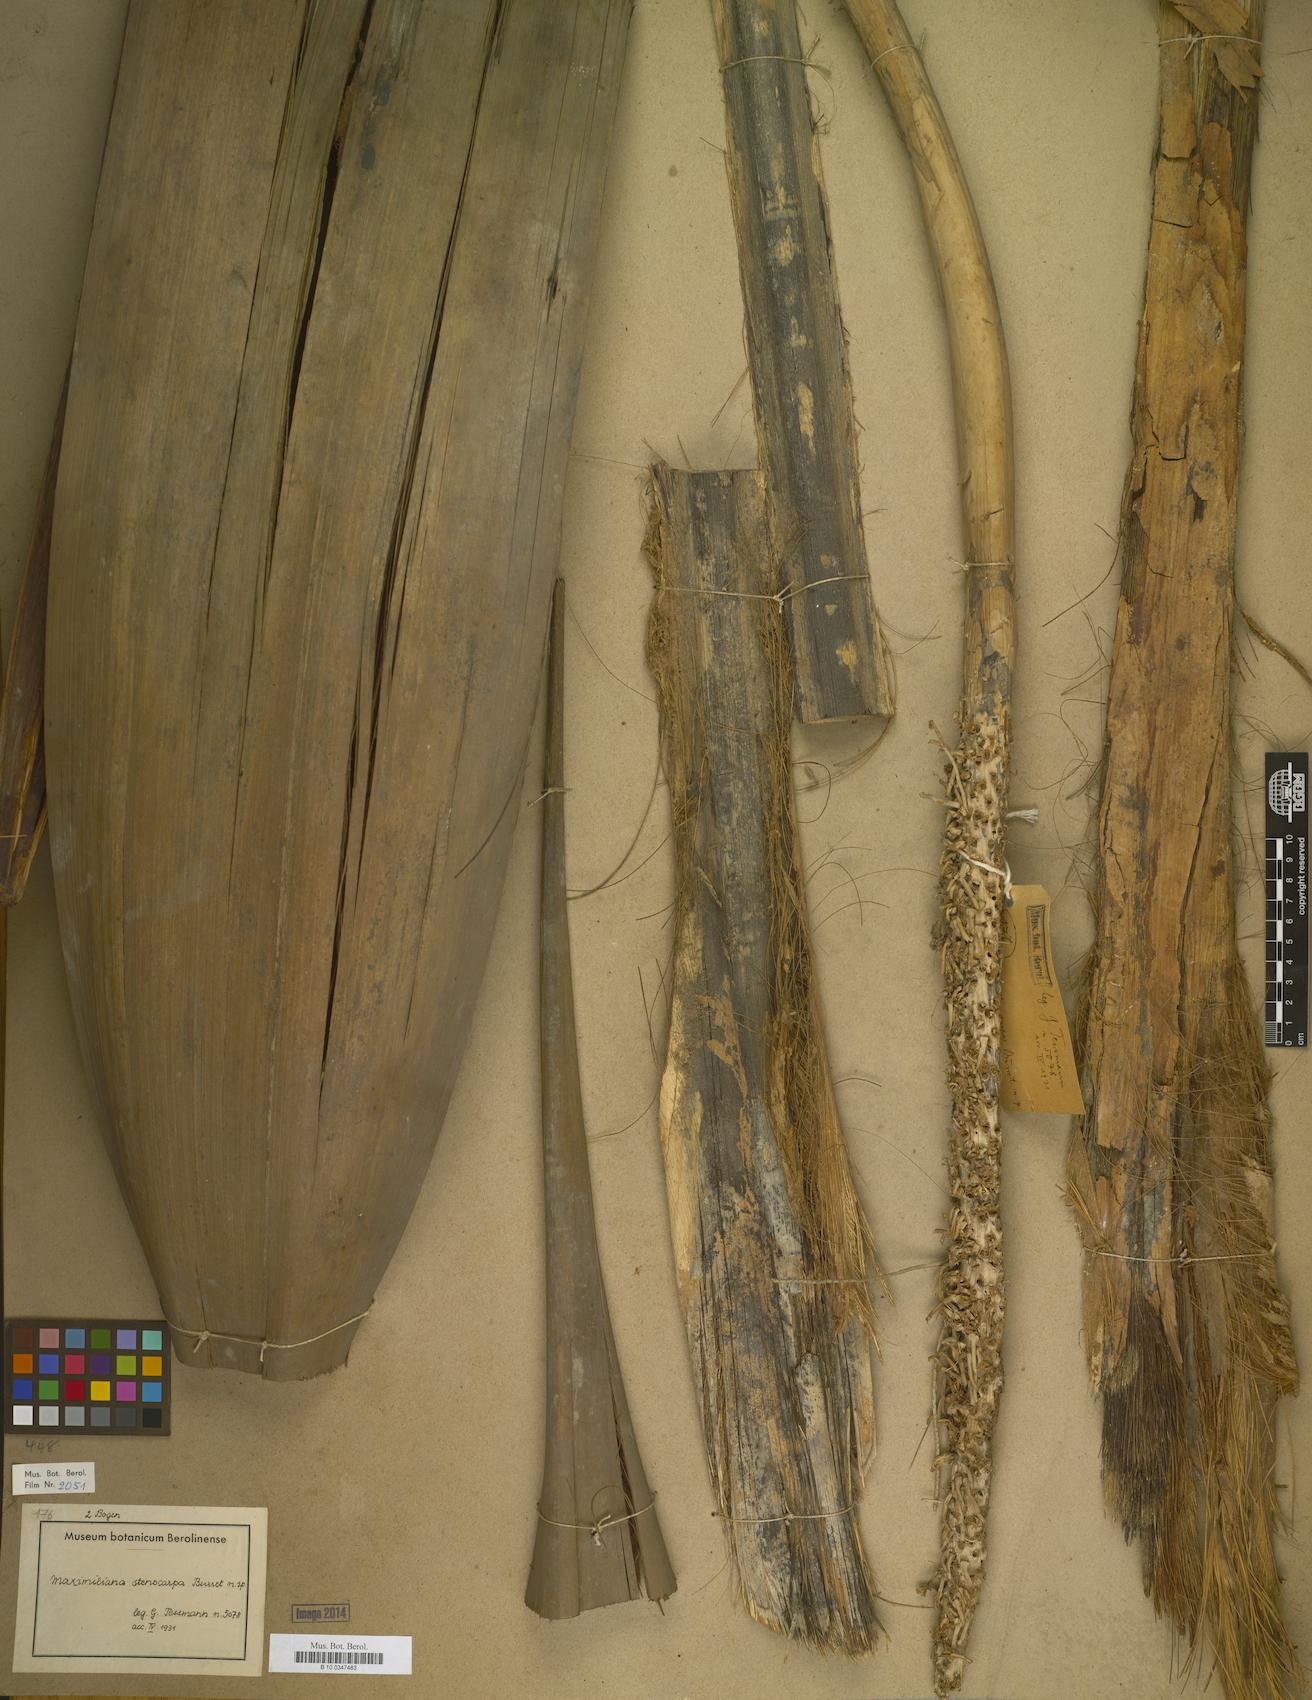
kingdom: Plantae
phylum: Tracheophyta
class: Liliopsida
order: Arecales
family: Arecaceae
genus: Attalea
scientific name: Attalea maripa
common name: Maripa palm
